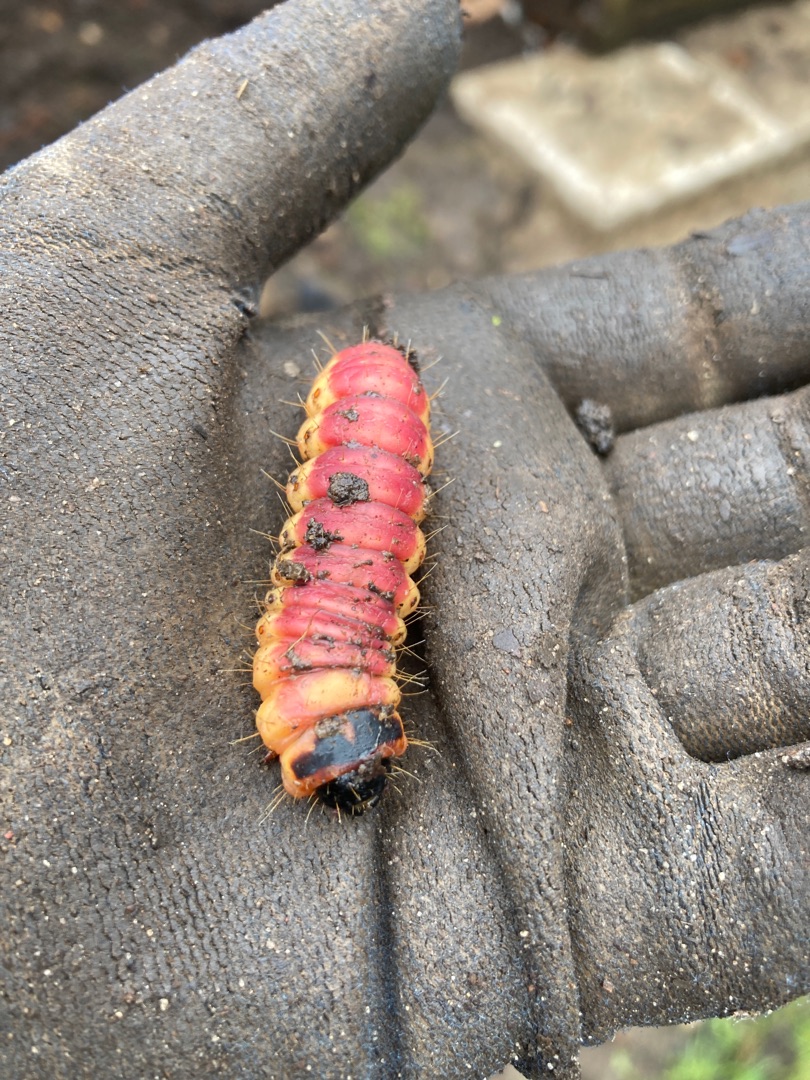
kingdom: Animalia
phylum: Arthropoda
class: Insecta
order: Lepidoptera
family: Cossidae
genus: Cossus
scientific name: Cossus cossus
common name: Pileborer
